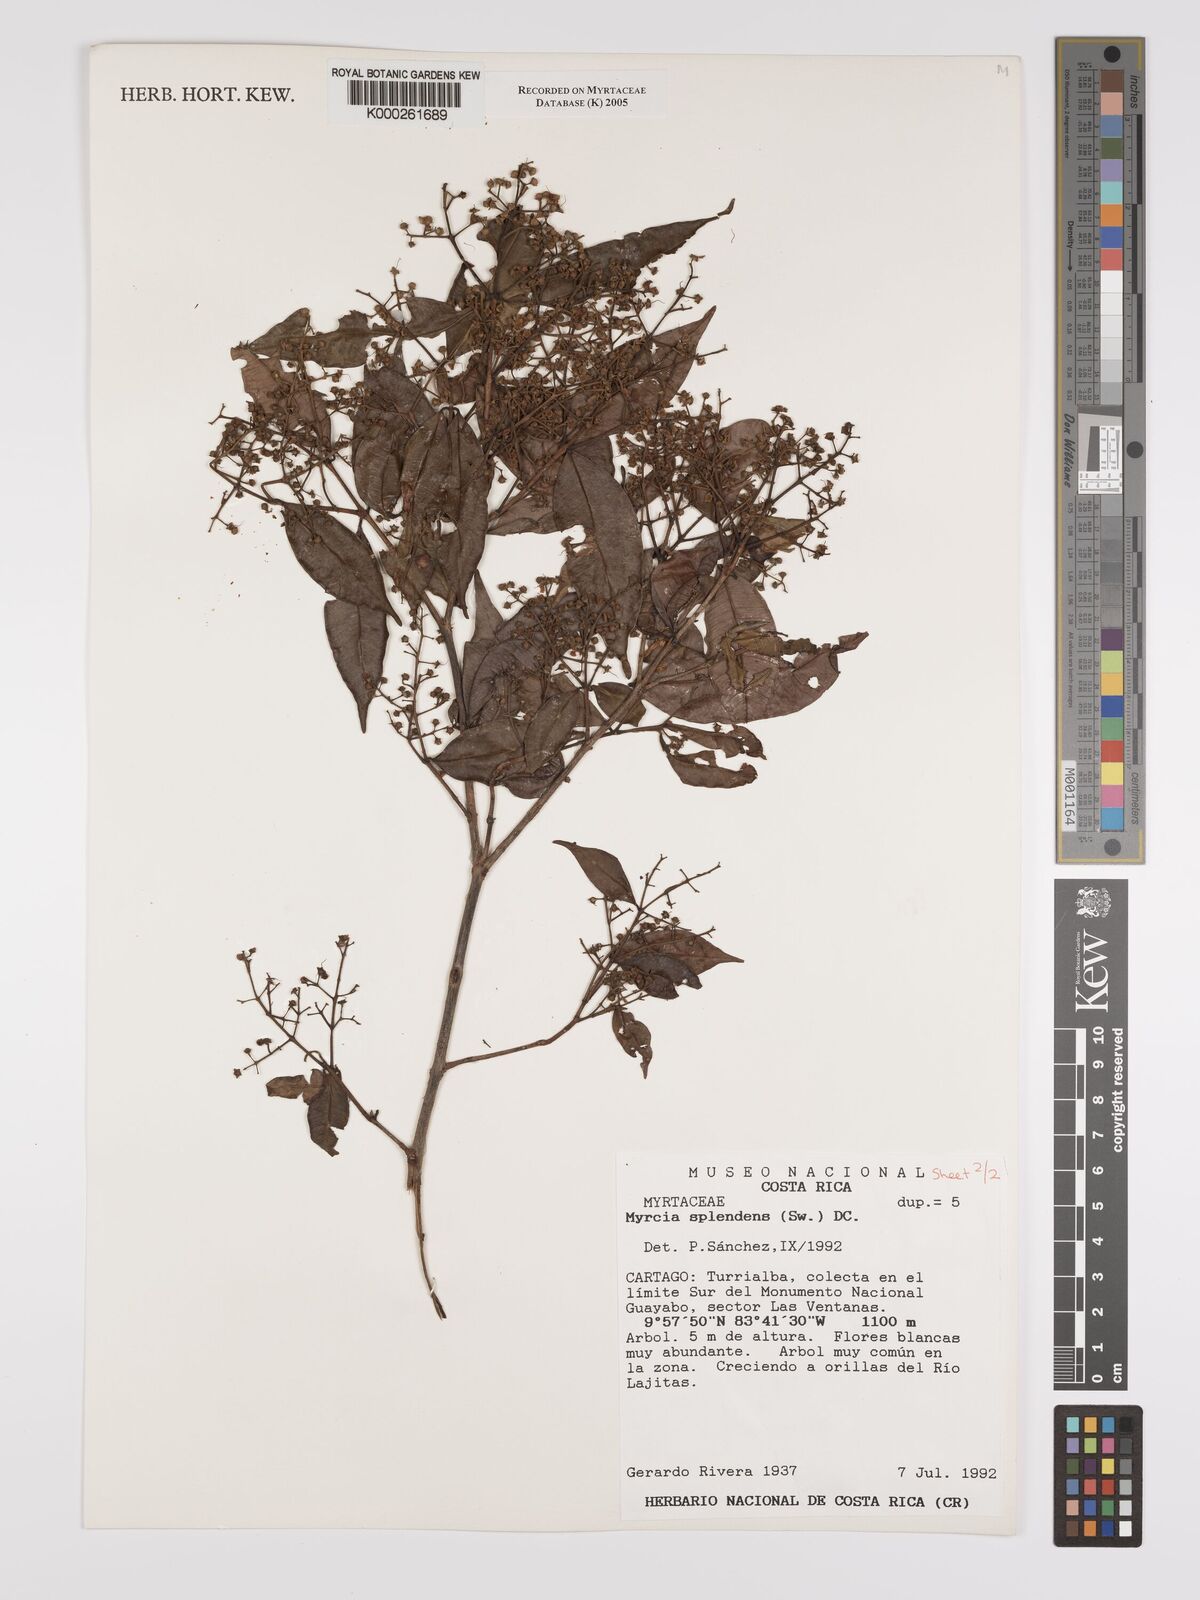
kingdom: Plantae
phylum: Tracheophyta
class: Magnoliopsida
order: Myrtales
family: Myrtaceae
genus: Myrcia
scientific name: Myrcia splendens
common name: Surinam cherry
